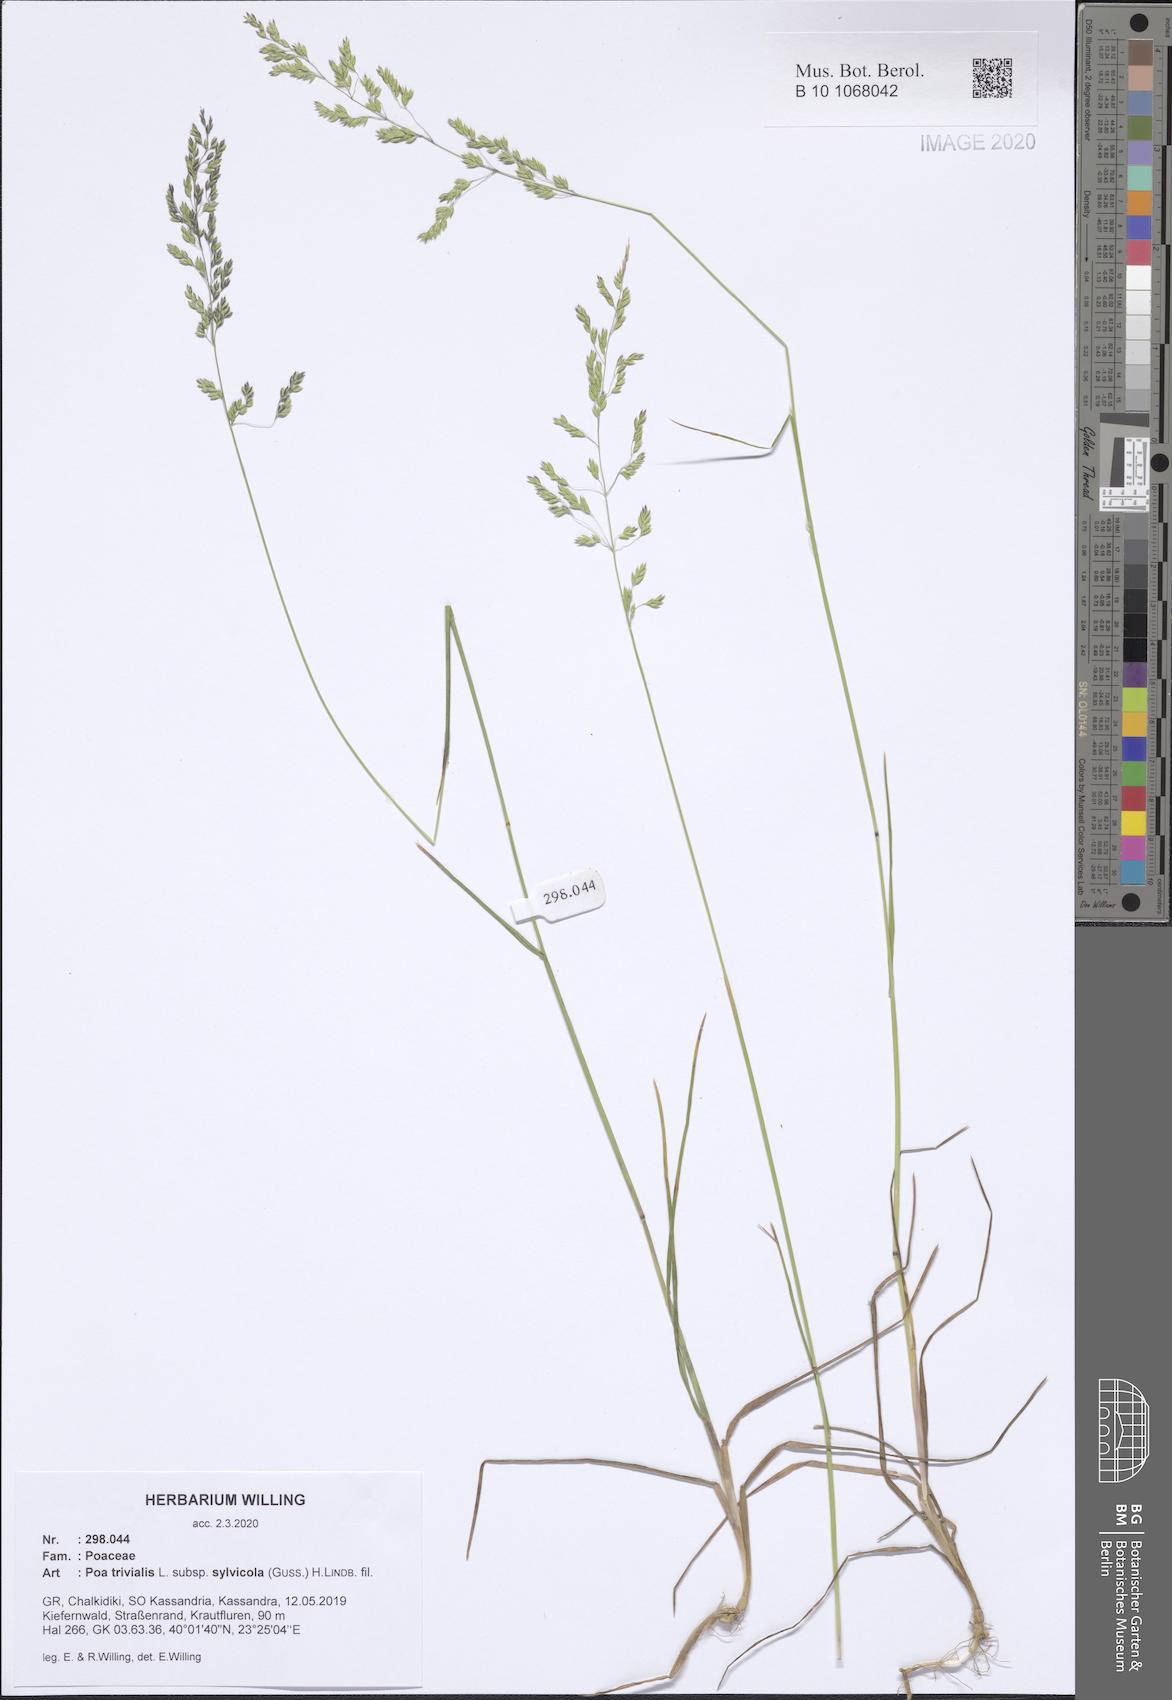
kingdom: Plantae
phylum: Tracheophyta
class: Liliopsida
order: Poales
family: Poaceae
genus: Poa
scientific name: Poa trivialis
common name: Rough bluegrass
